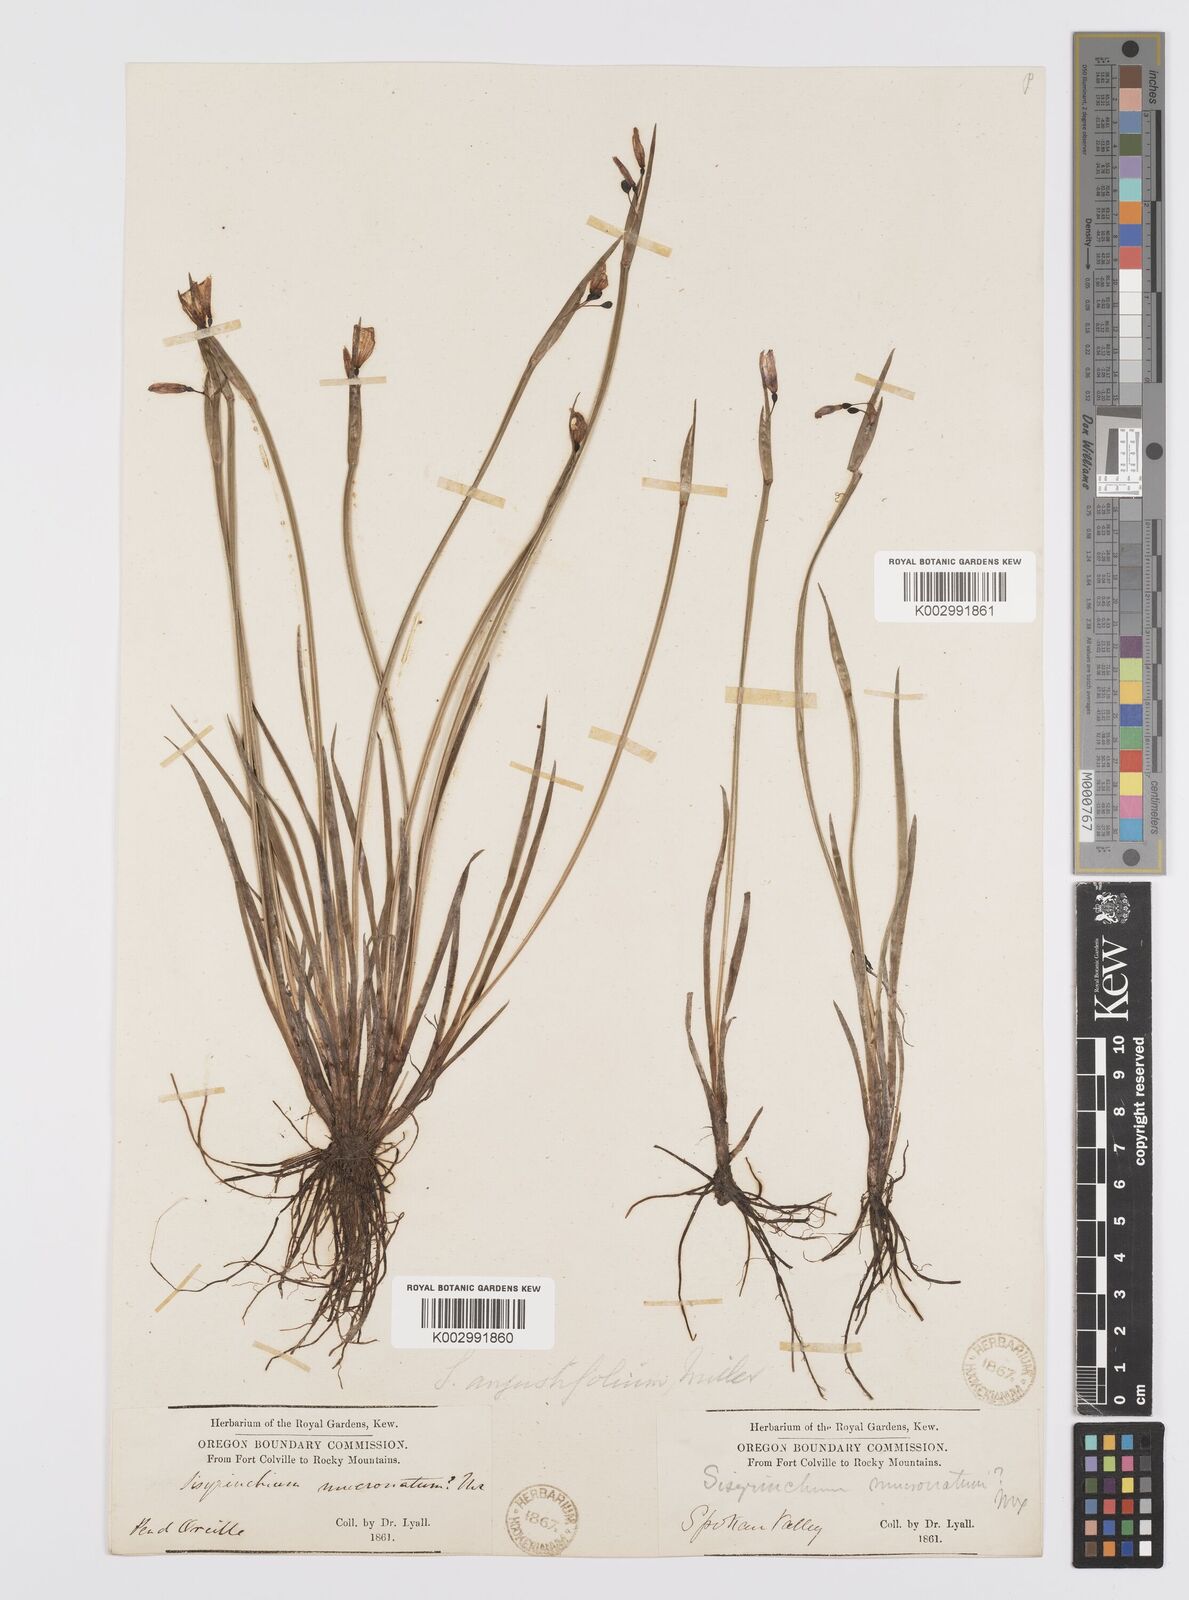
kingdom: Plantae
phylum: Tracheophyta
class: Liliopsida
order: Asparagales
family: Iridaceae
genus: Sisyrinchium
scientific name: Sisyrinchium bermudiana
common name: Blue-eyed-grass
